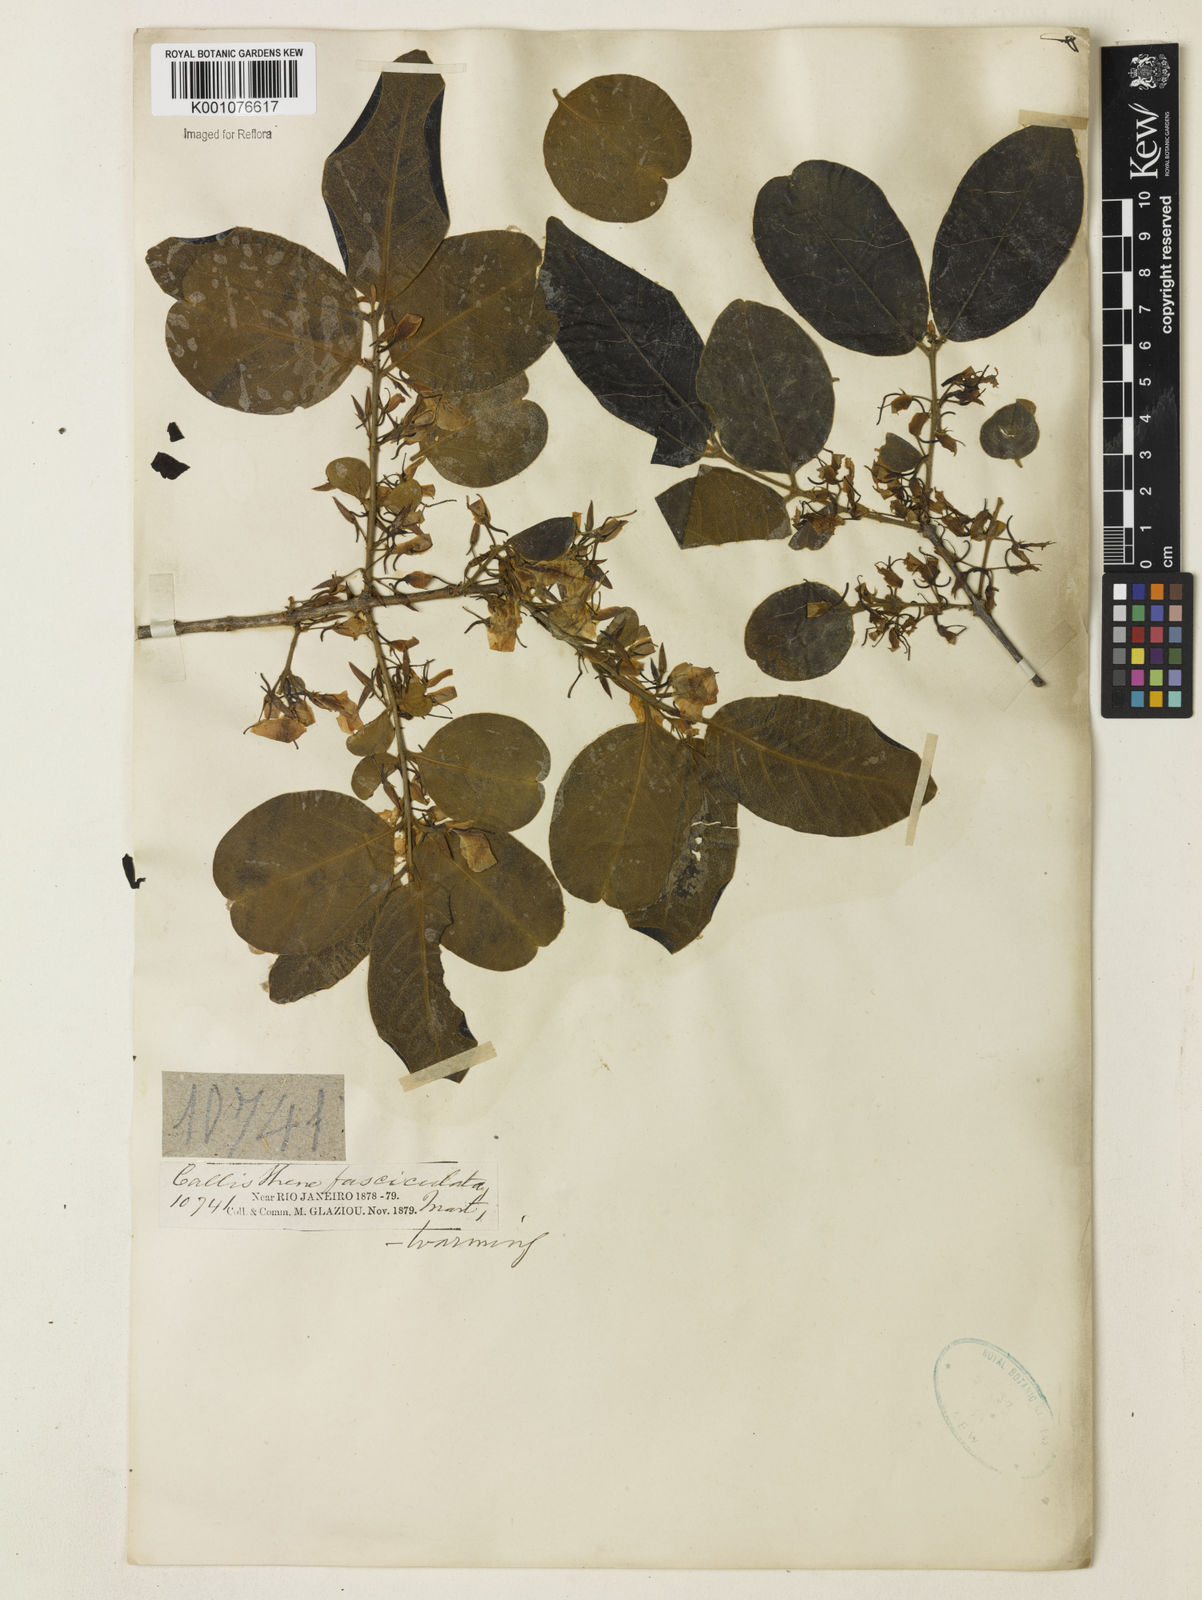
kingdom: Plantae
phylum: Tracheophyta
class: Magnoliopsida
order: Myrtales
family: Vochysiaceae
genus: Callisthene
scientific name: Callisthene fasciculata
